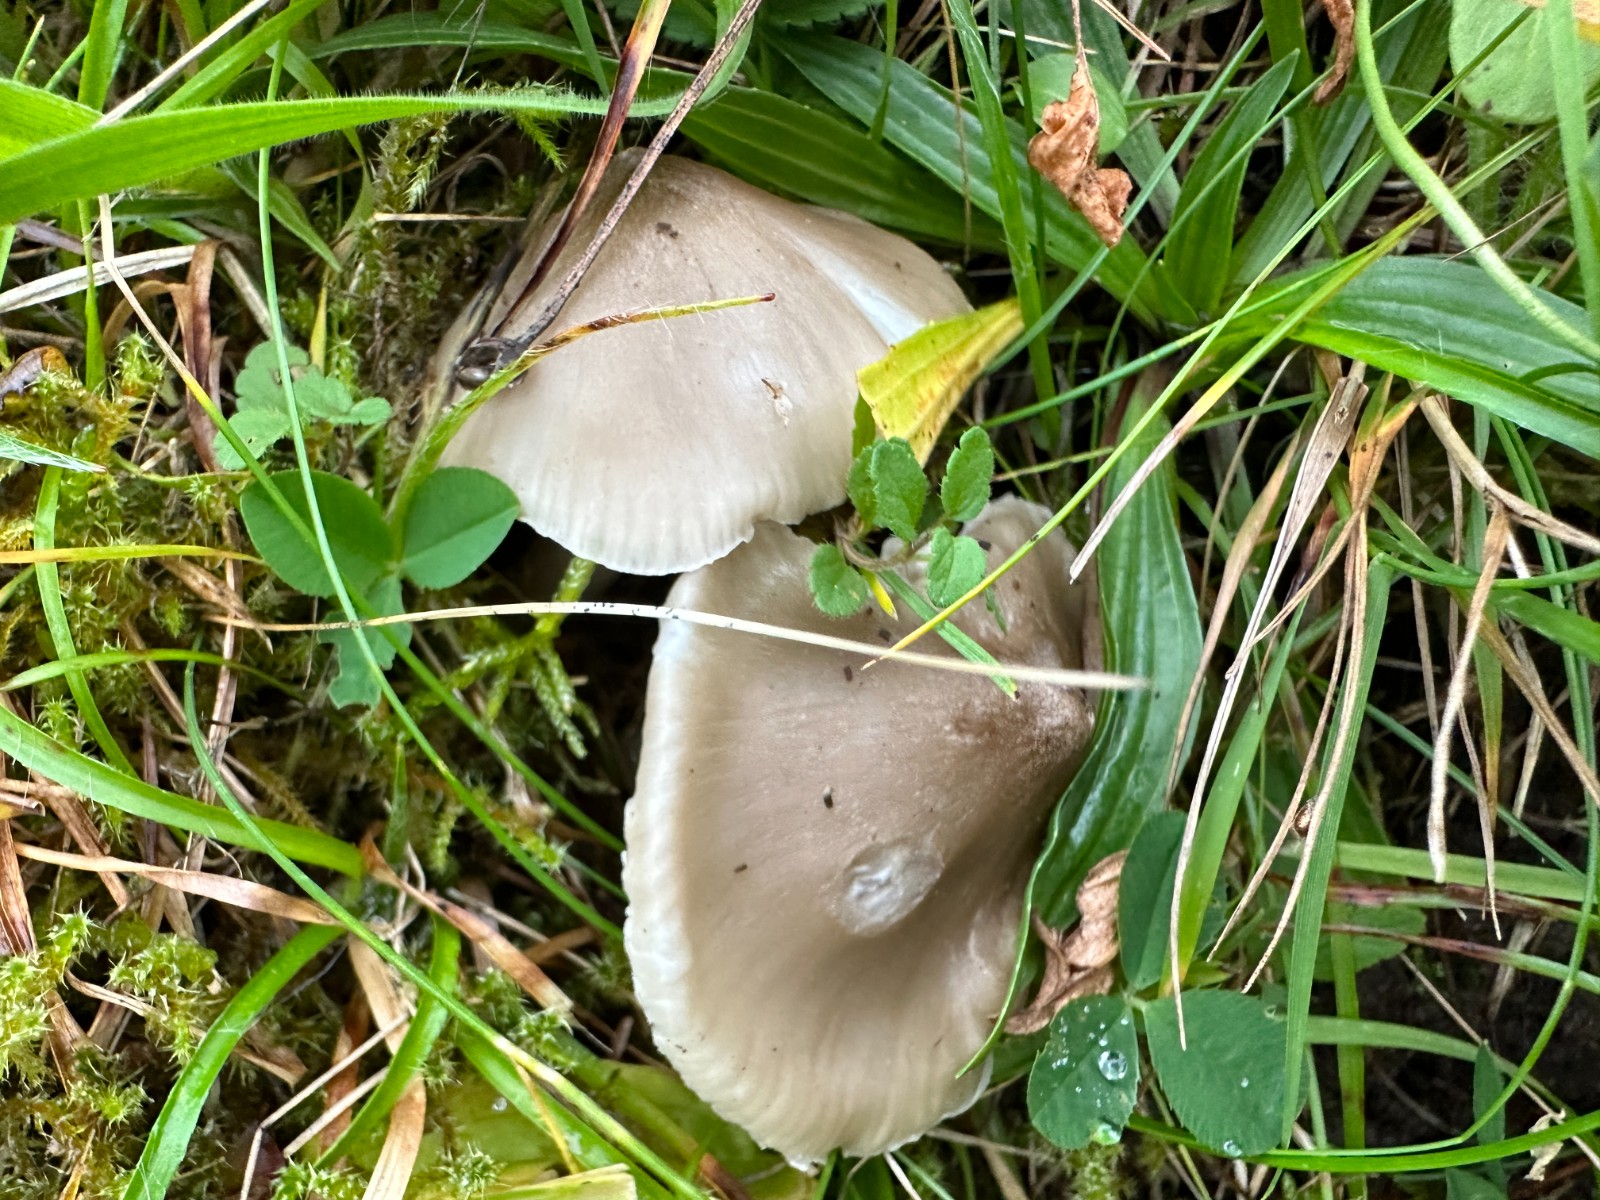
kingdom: Fungi
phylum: Basidiomycota
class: Agaricomycetes
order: Agaricales
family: Hygrophoraceae
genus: Cuphophyllus
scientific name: Cuphophyllus fornicatus
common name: gråbrun vokshat
